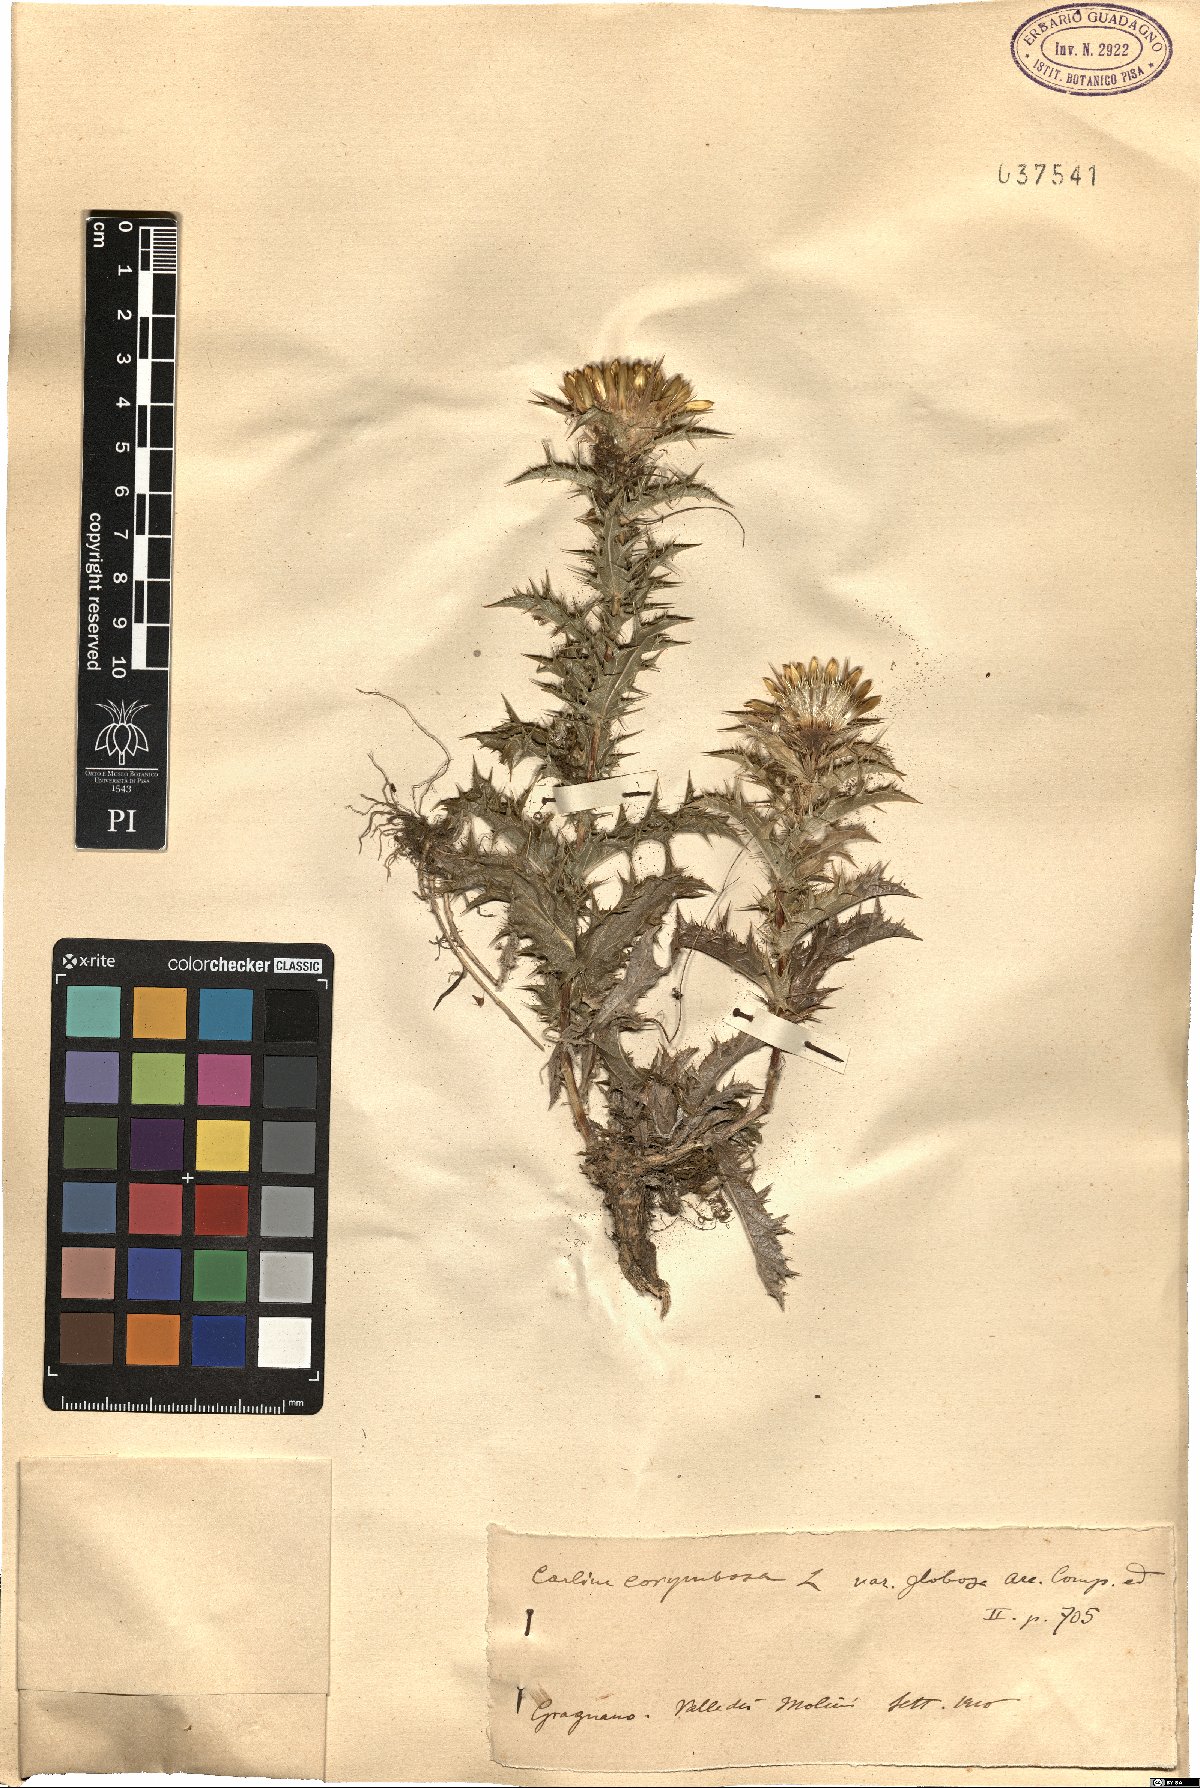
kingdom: Plantae
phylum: Tracheophyta
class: Magnoliopsida
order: Asterales
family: Asteraceae
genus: Carlina
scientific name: Carlina corymbosa
